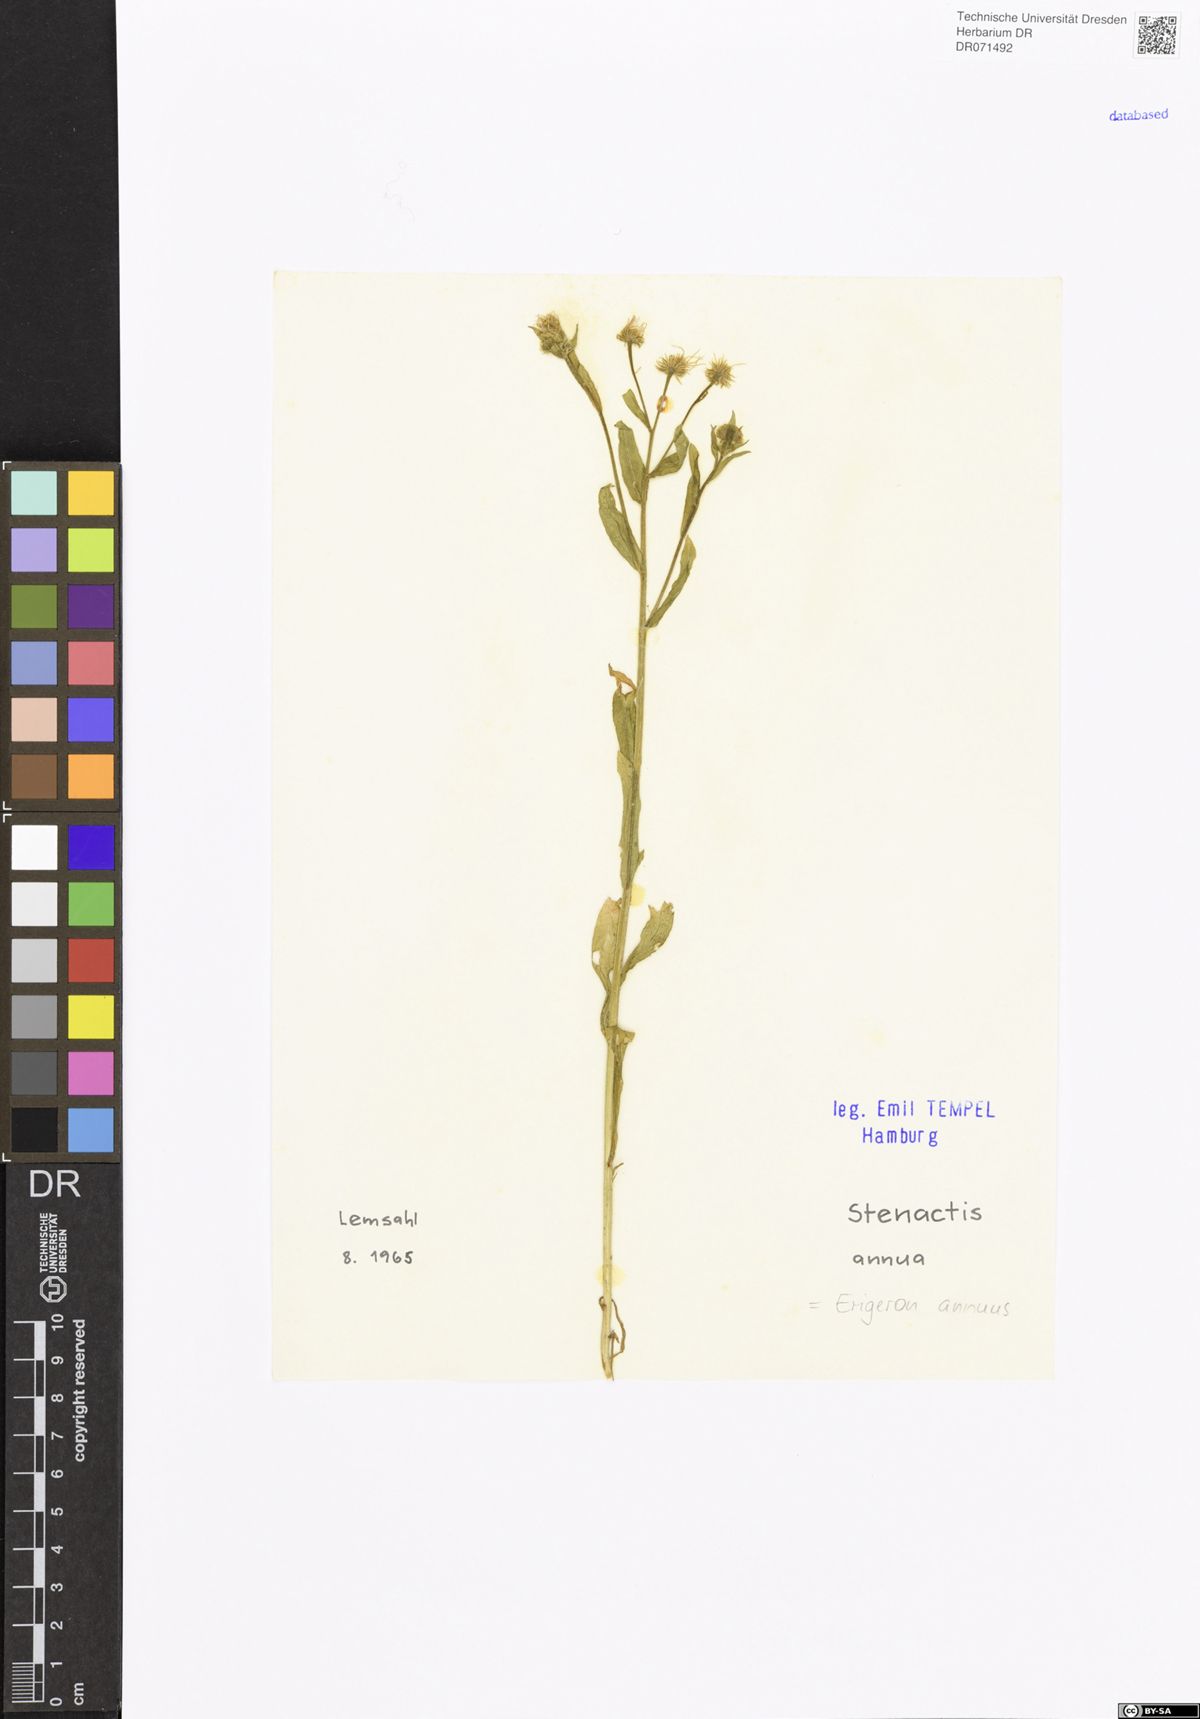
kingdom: Plantae
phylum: Tracheophyta
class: Magnoliopsida
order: Asterales
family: Asteraceae
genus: Erigeron
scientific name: Erigeron annuus
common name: Tall fleabane
